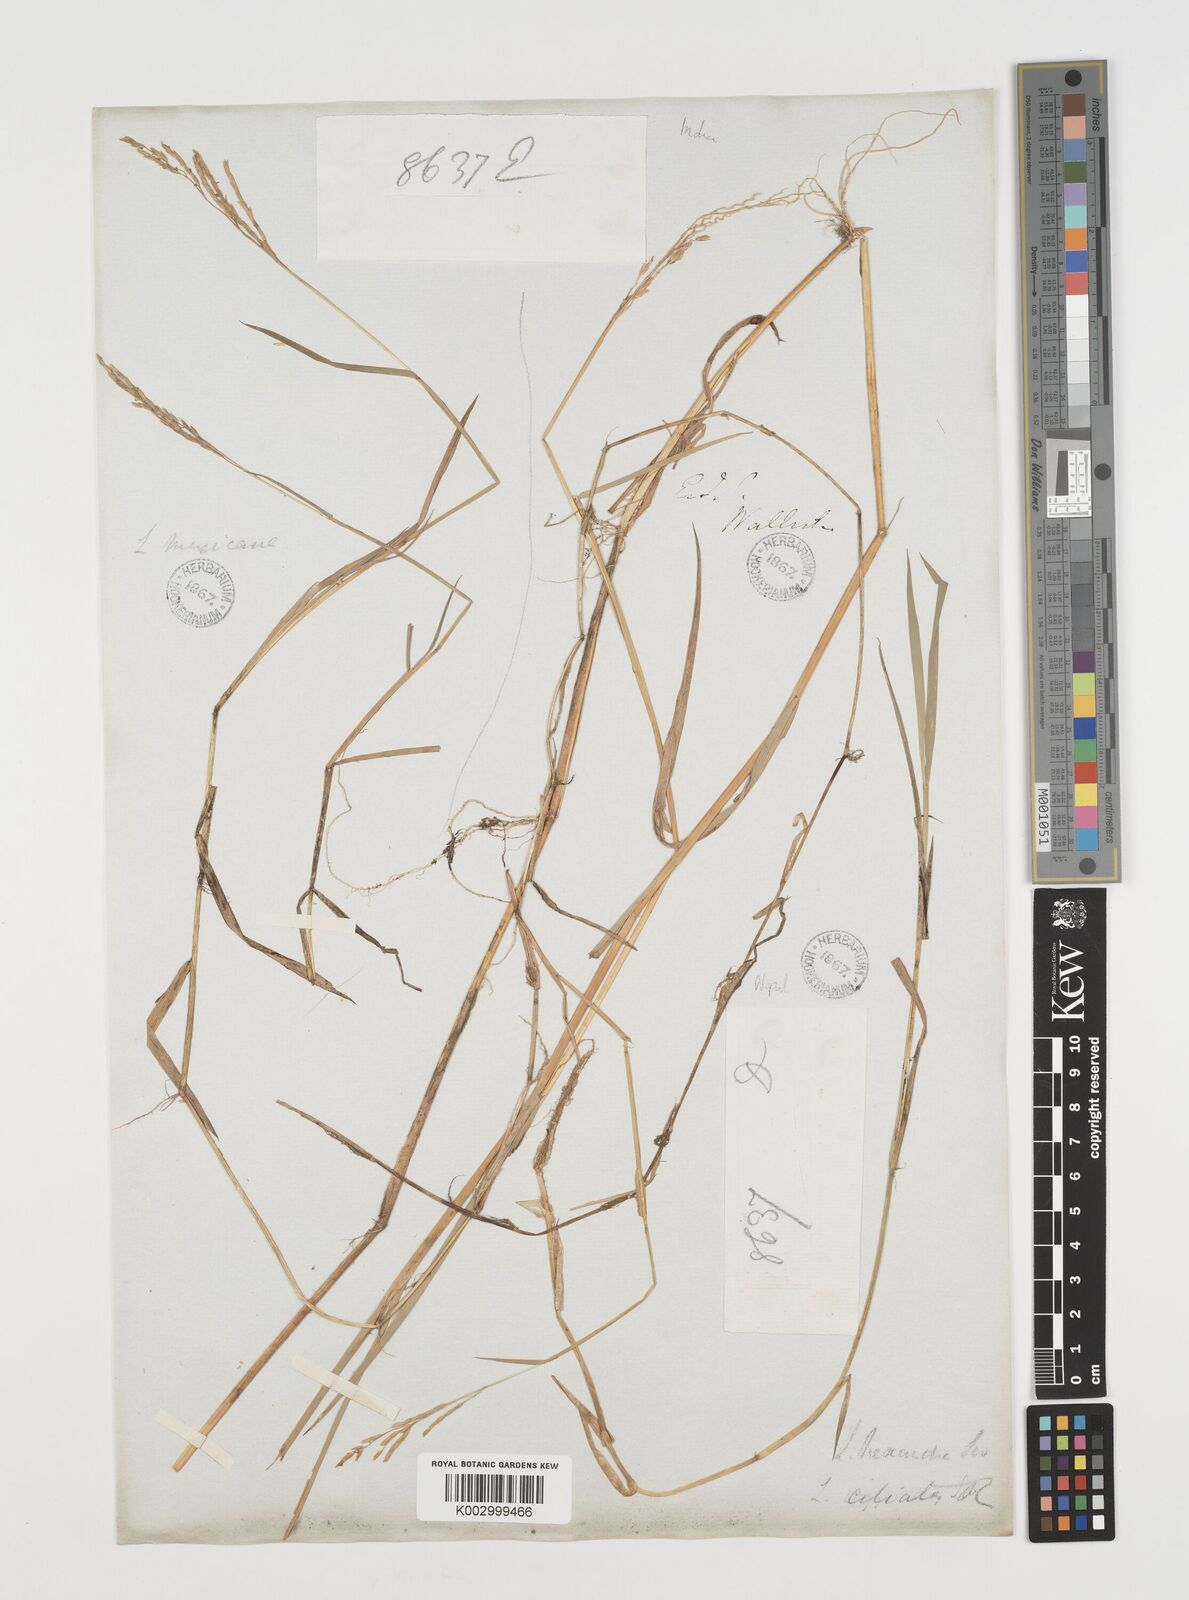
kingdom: Plantae
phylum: Tracheophyta
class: Liliopsida
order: Poales
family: Poaceae
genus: Leersia
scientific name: Leersia hexandra
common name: Southern cut grass
